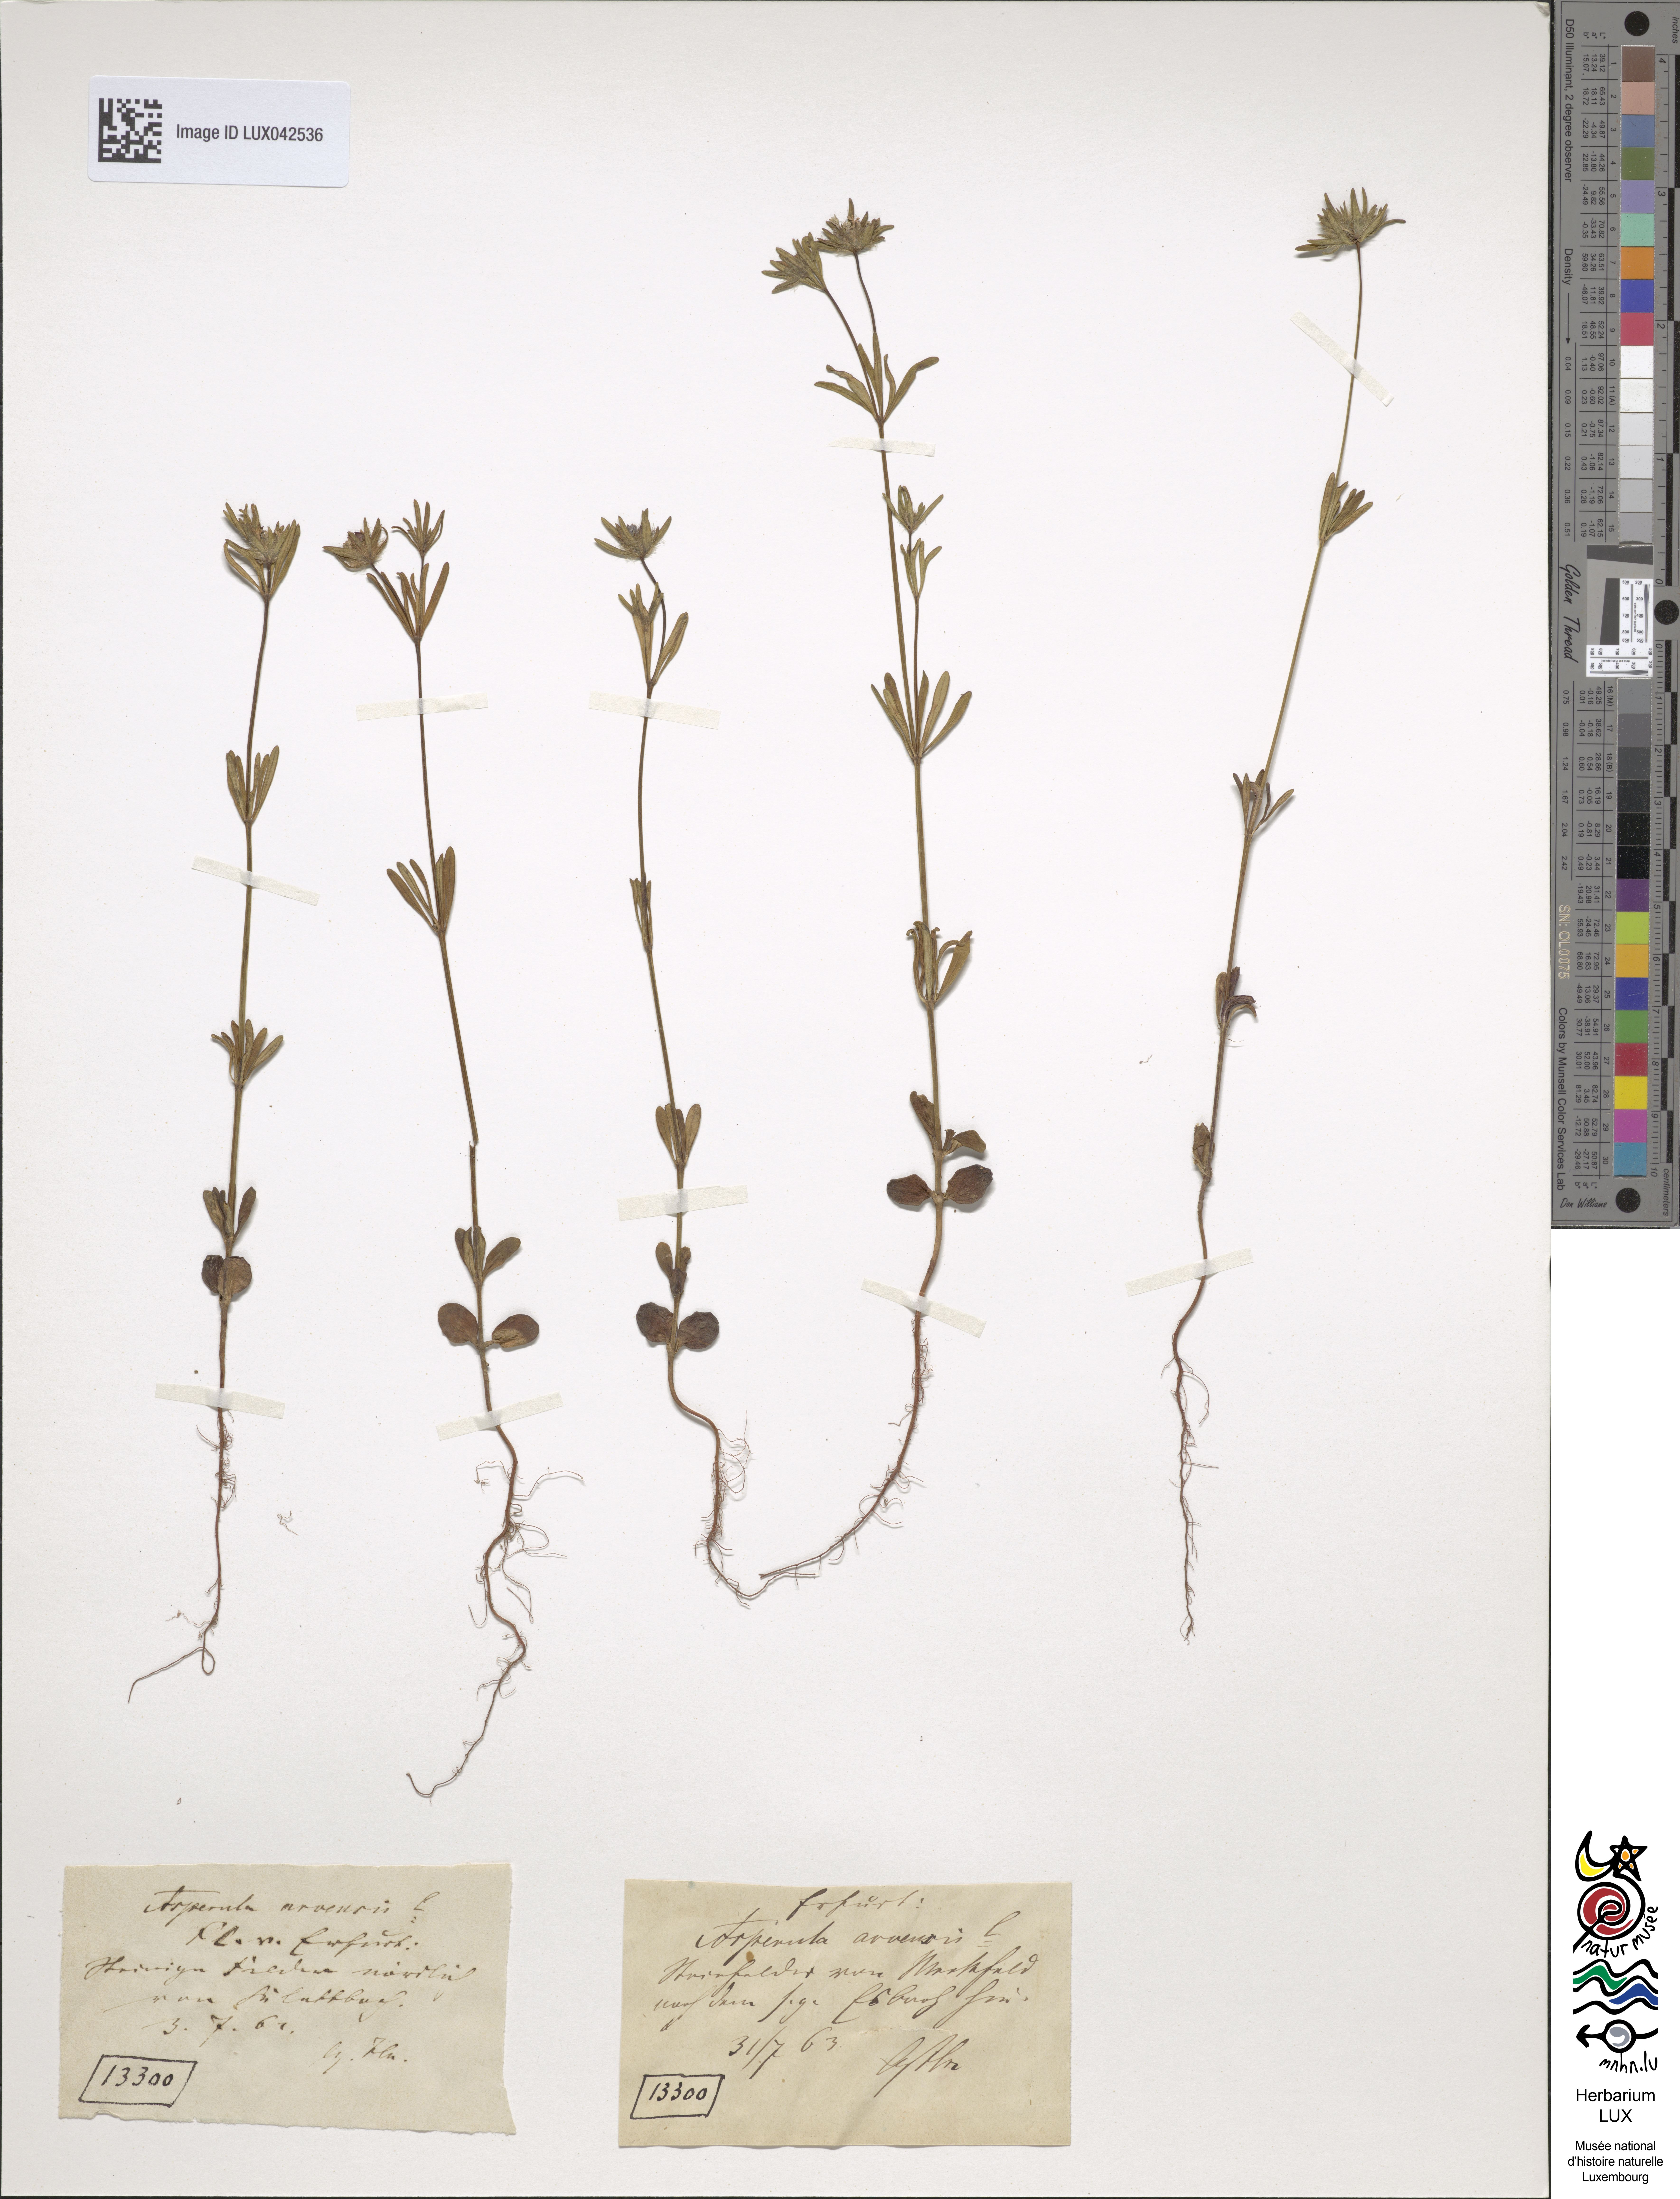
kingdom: Plantae
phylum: Tracheophyta
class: Magnoliopsida
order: Gentianales
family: Rubiaceae
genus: Asperula
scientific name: Asperula arvensis
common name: Blue woodruff
